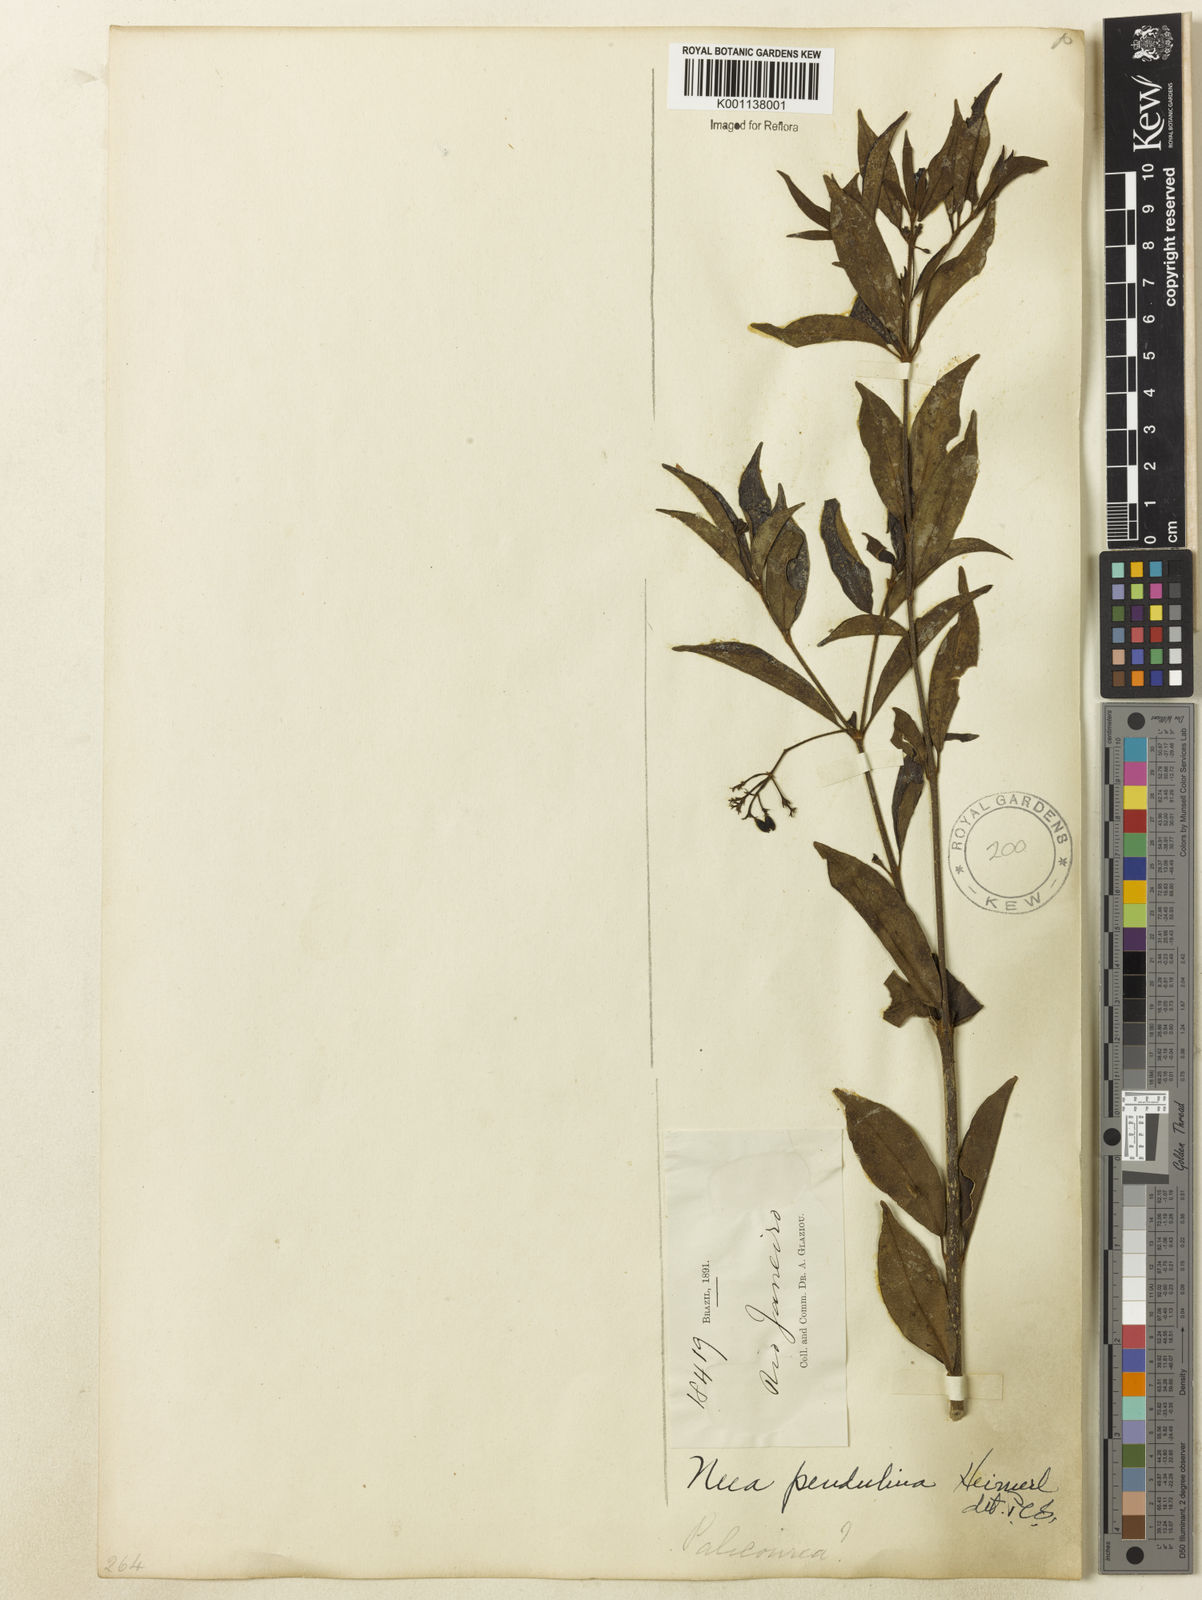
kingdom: Plantae
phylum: Tracheophyta
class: Magnoliopsida
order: Caryophyllales
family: Nyctaginaceae
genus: Neea
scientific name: Neea pendulina
